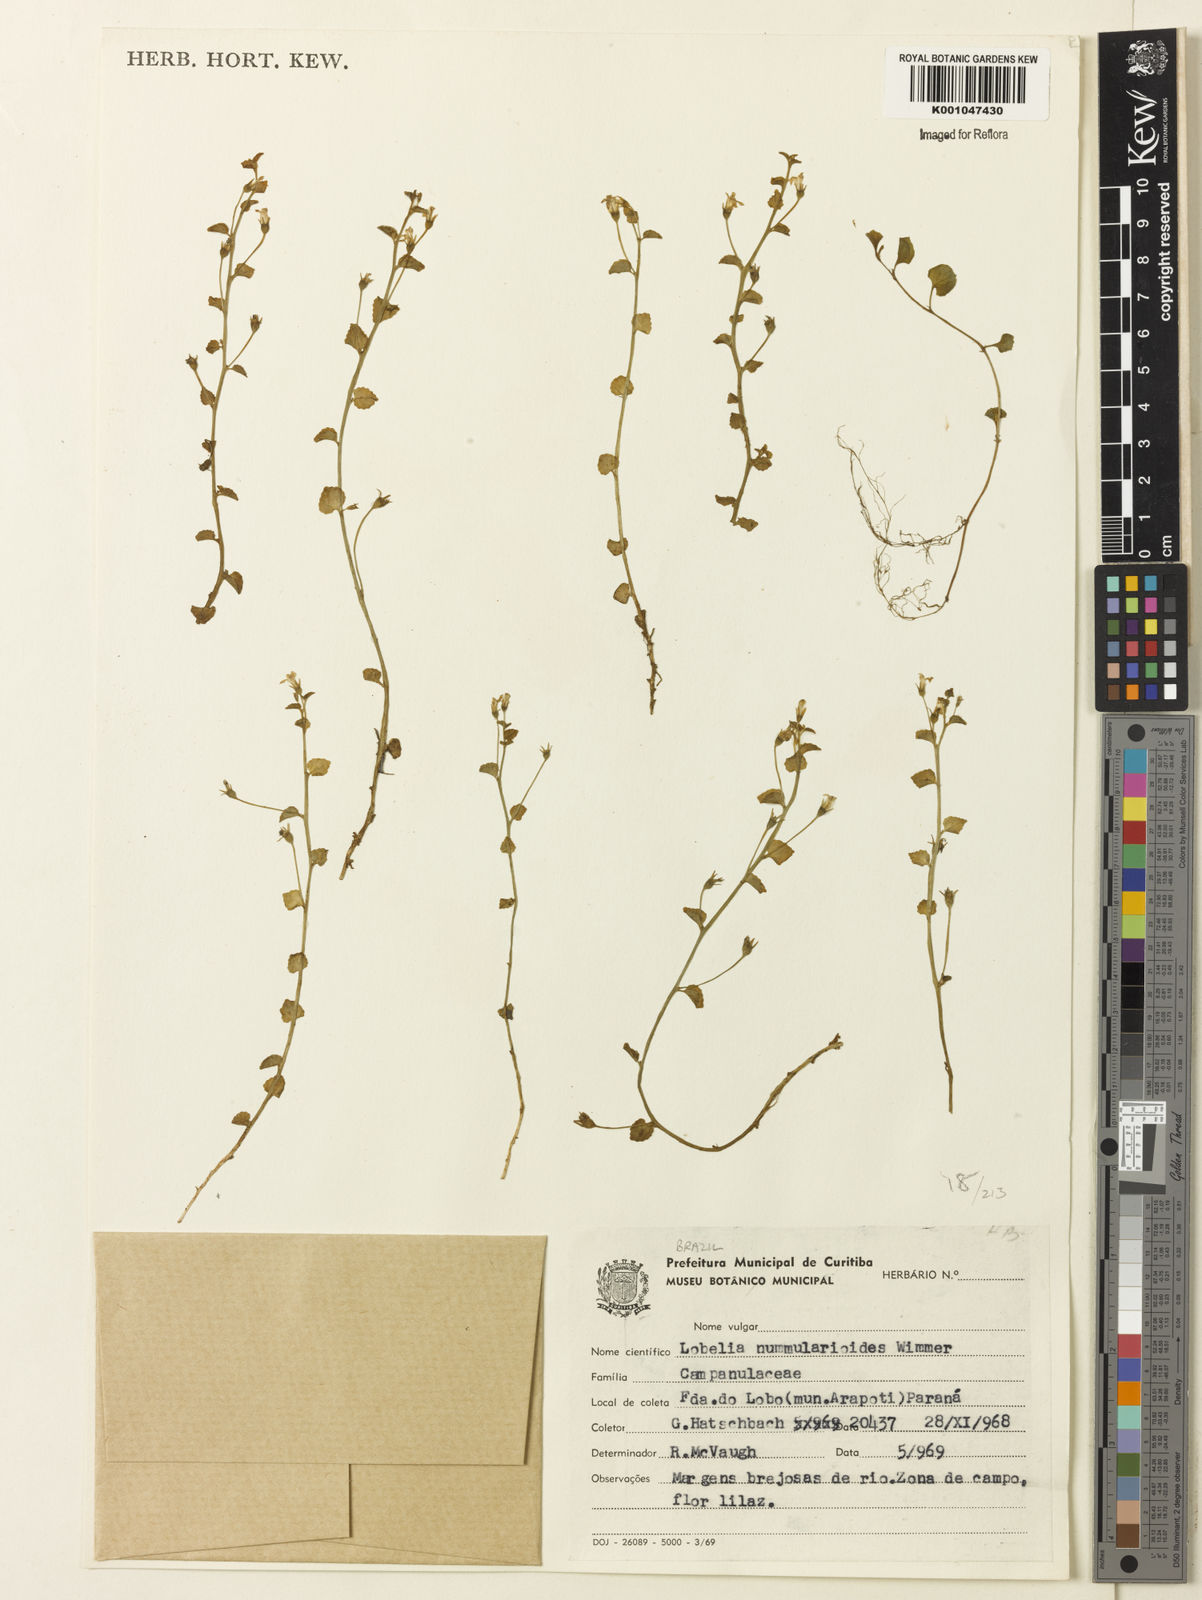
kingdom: Plantae
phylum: Tracheophyta
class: Magnoliopsida
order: Asterales
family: Campanulaceae
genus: Lobelia
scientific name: Lobelia nummularioides
